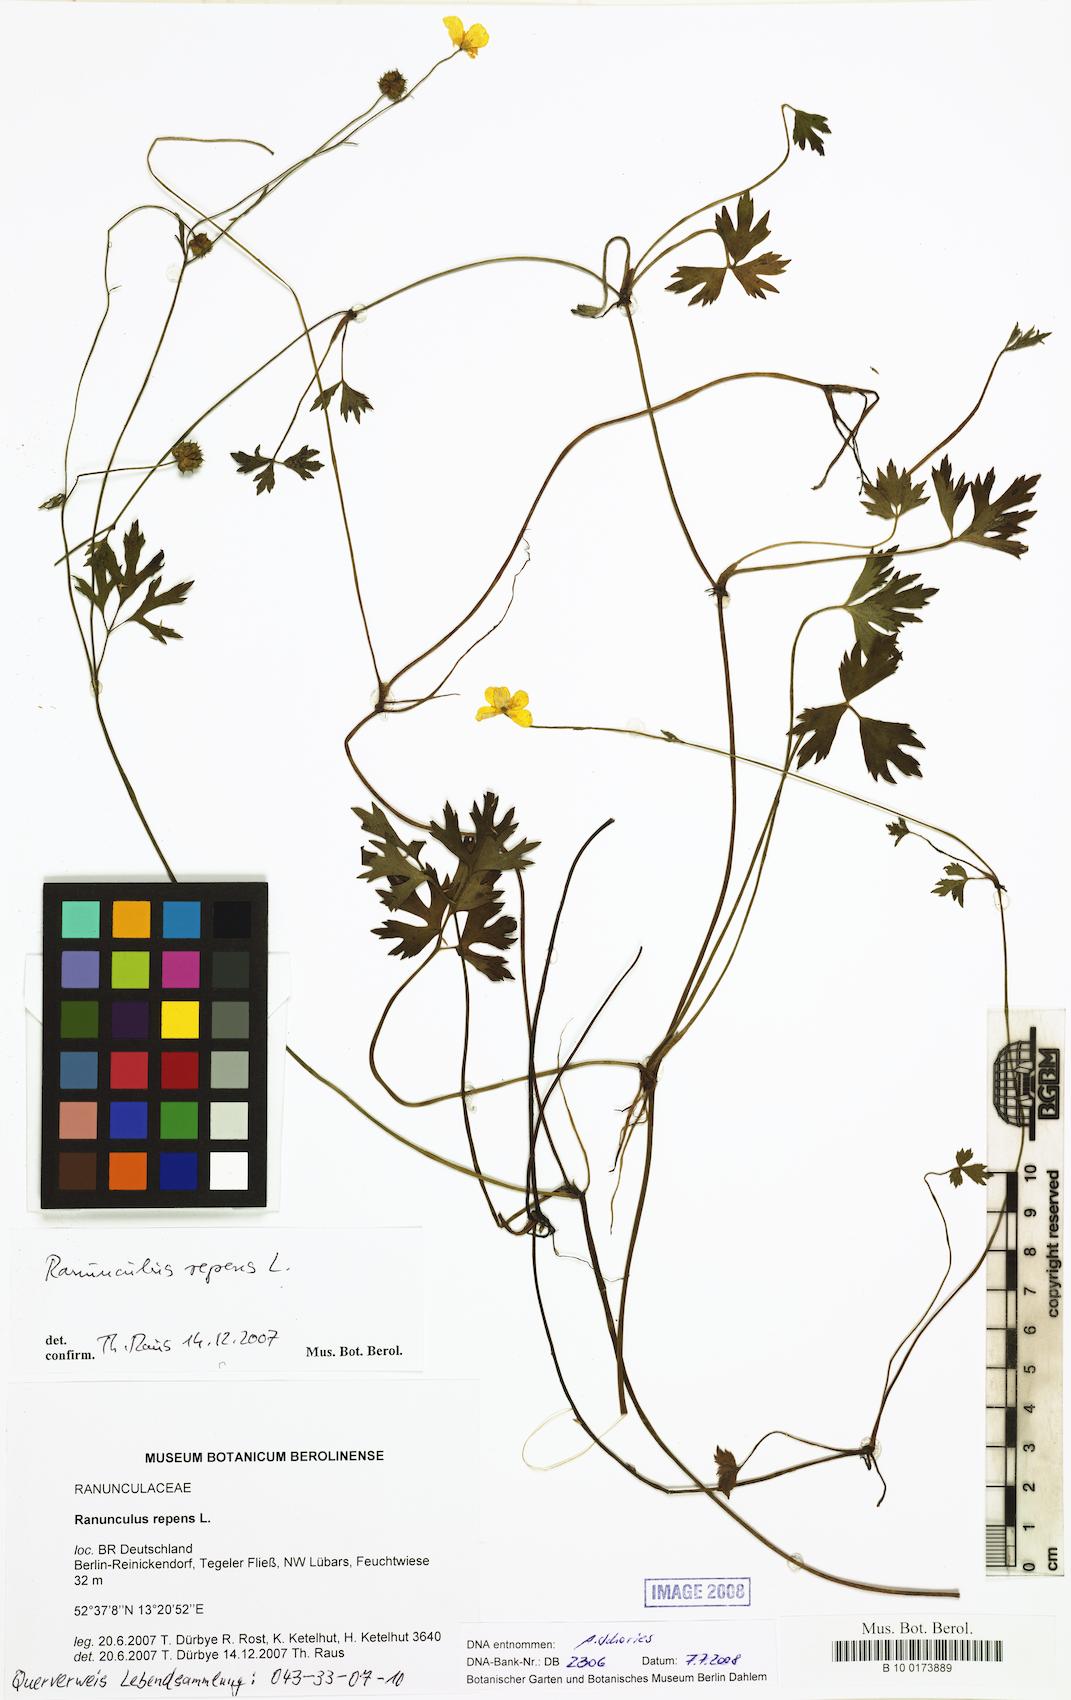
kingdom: Plantae
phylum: Tracheophyta
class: Magnoliopsida
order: Ranunculales
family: Ranunculaceae
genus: Ranunculus
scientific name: Ranunculus repens
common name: Creeping buttercup
